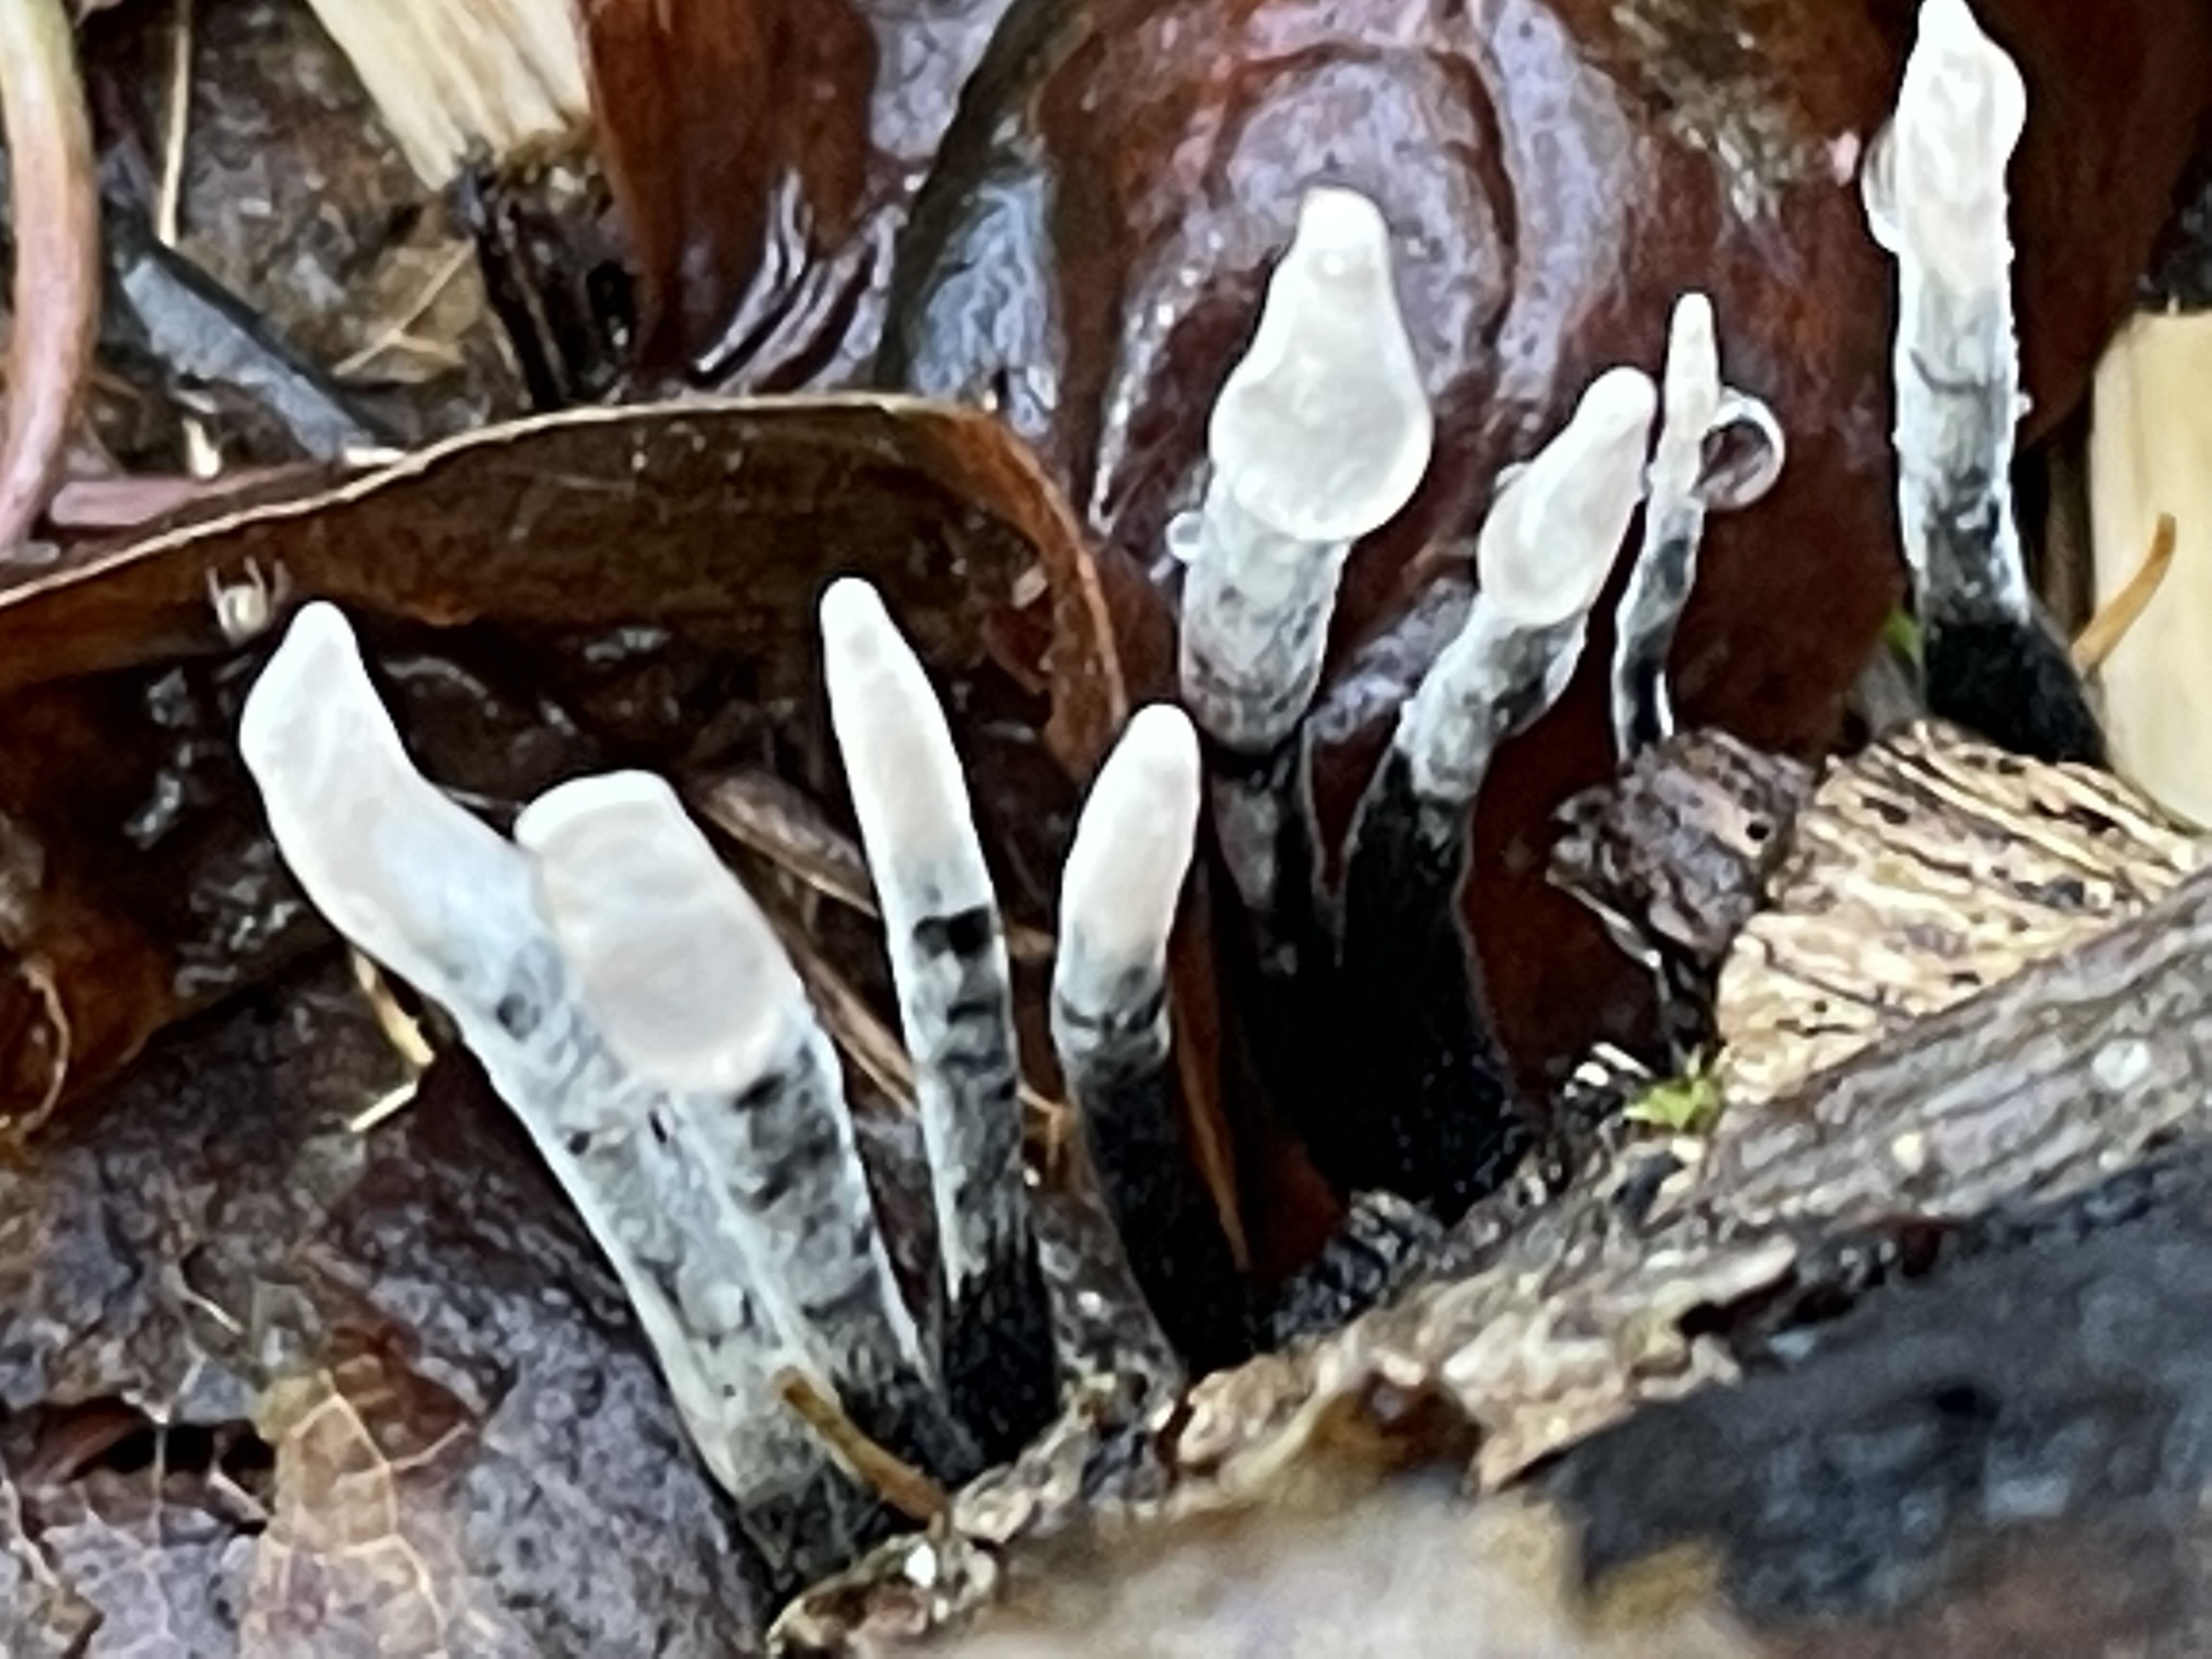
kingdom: Fungi
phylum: Ascomycota
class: Sordariomycetes
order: Xylariales
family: Xylariaceae
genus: Xylaria
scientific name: Xylaria hypoxylon
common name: grenet stødsvamp
